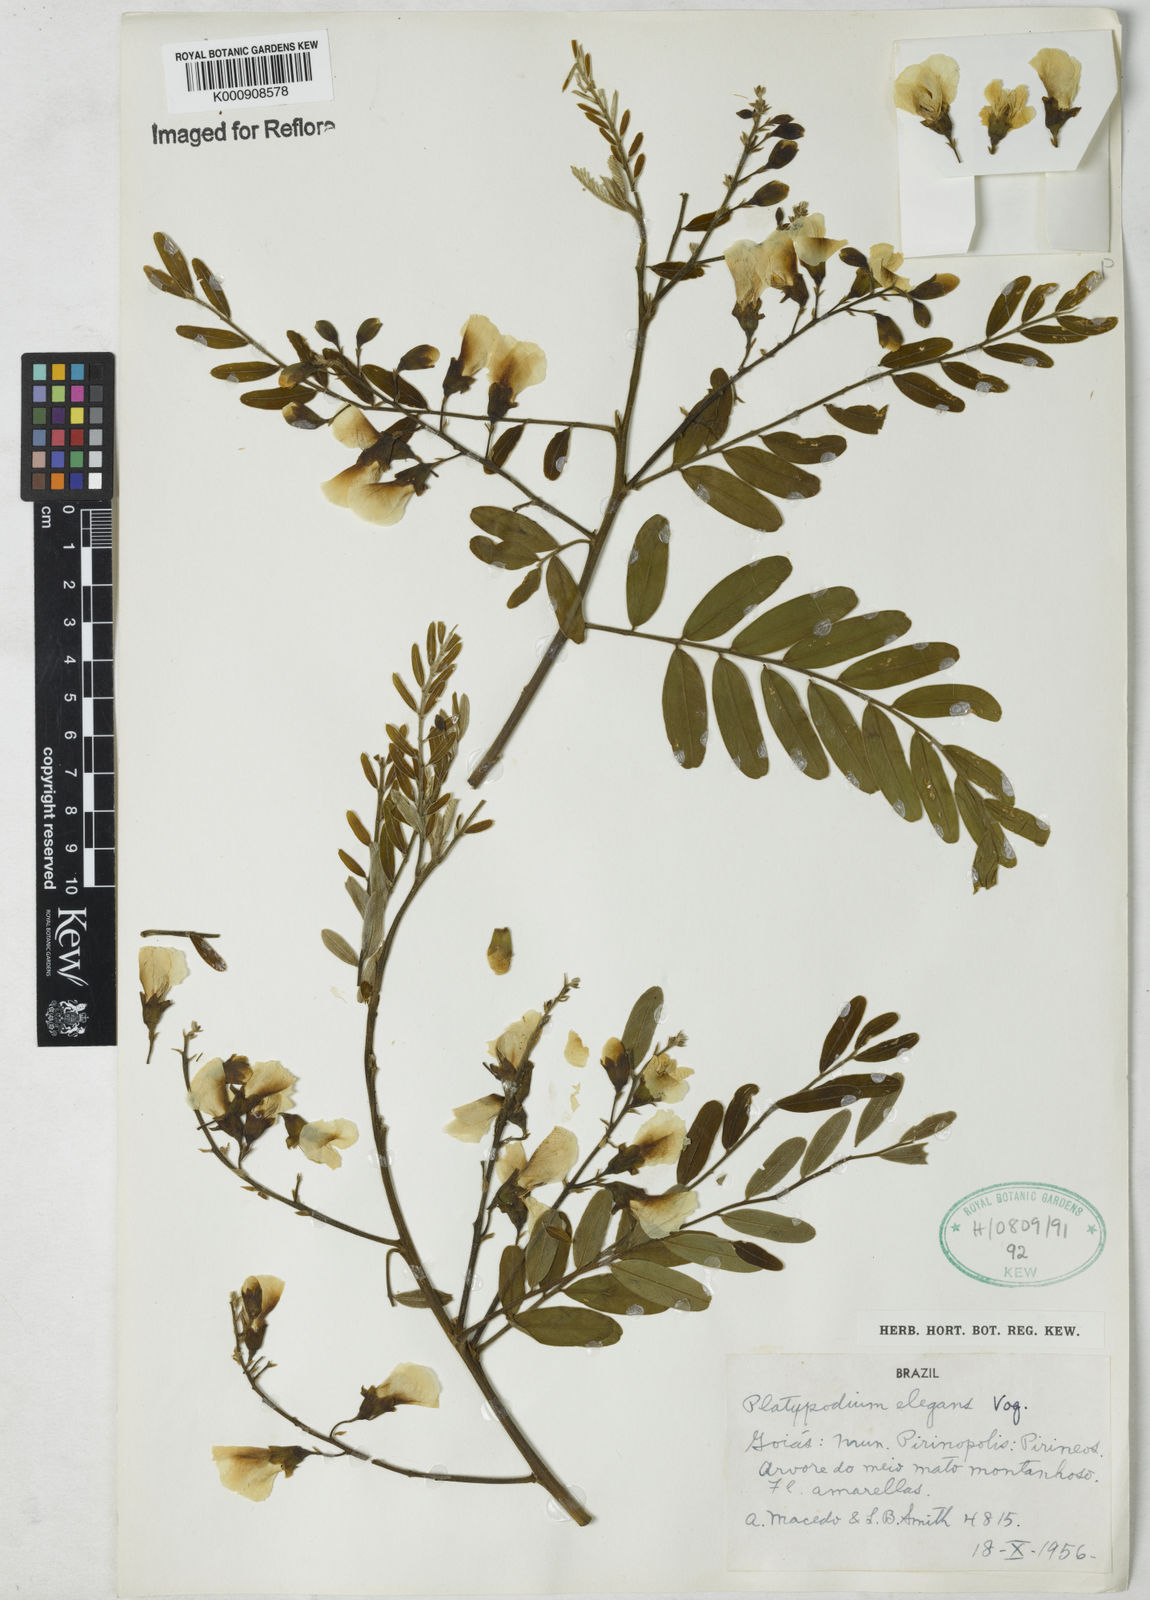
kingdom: Plantae
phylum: Tracheophyta
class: Magnoliopsida
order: Fabales
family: Fabaceae
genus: Platypodium
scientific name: Platypodium
